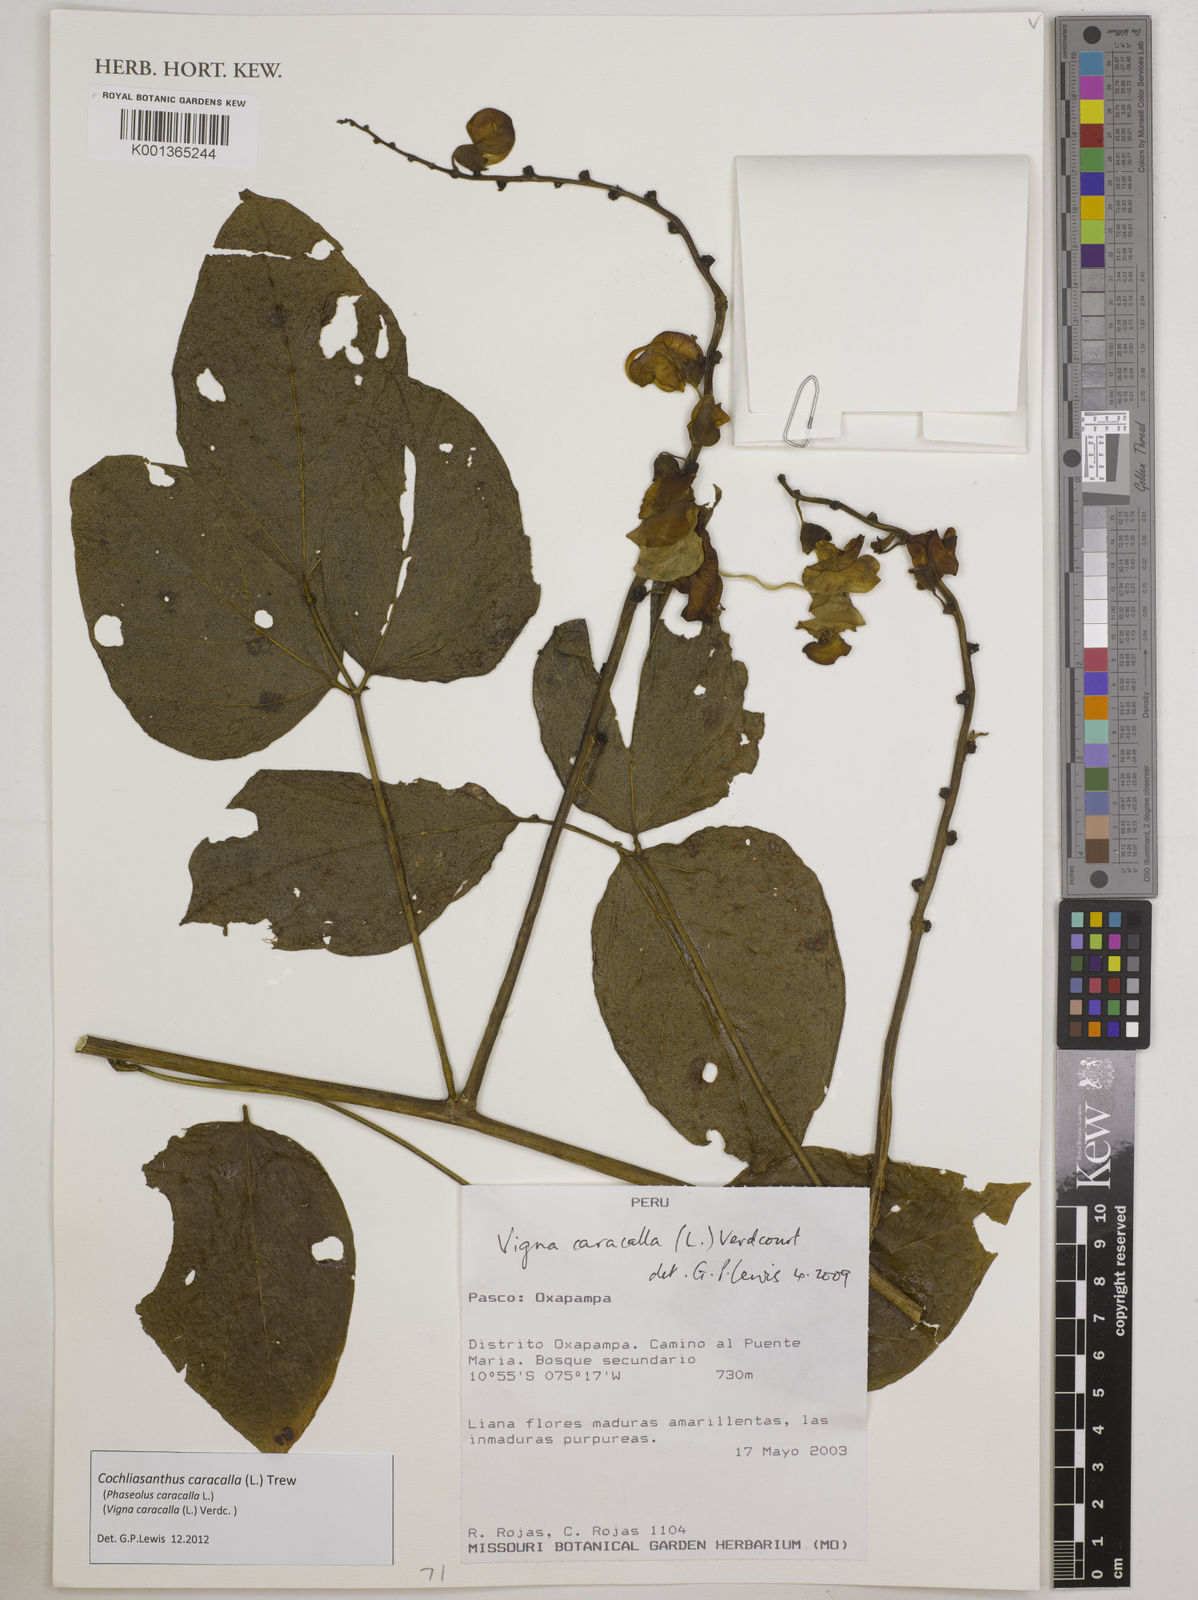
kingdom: Plantae
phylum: Tracheophyta
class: Magnoliopsida
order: Fabales
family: Fabaceae
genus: Cochliasanthus
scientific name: Cochliasanthus caracalla
